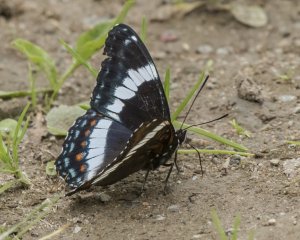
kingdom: Animalia
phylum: Arthropoda
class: Insecta
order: Lepidoptera
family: Nymphalidae
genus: Limenitis
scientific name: Limenitis arthemis
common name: Red-spotted Admiral
